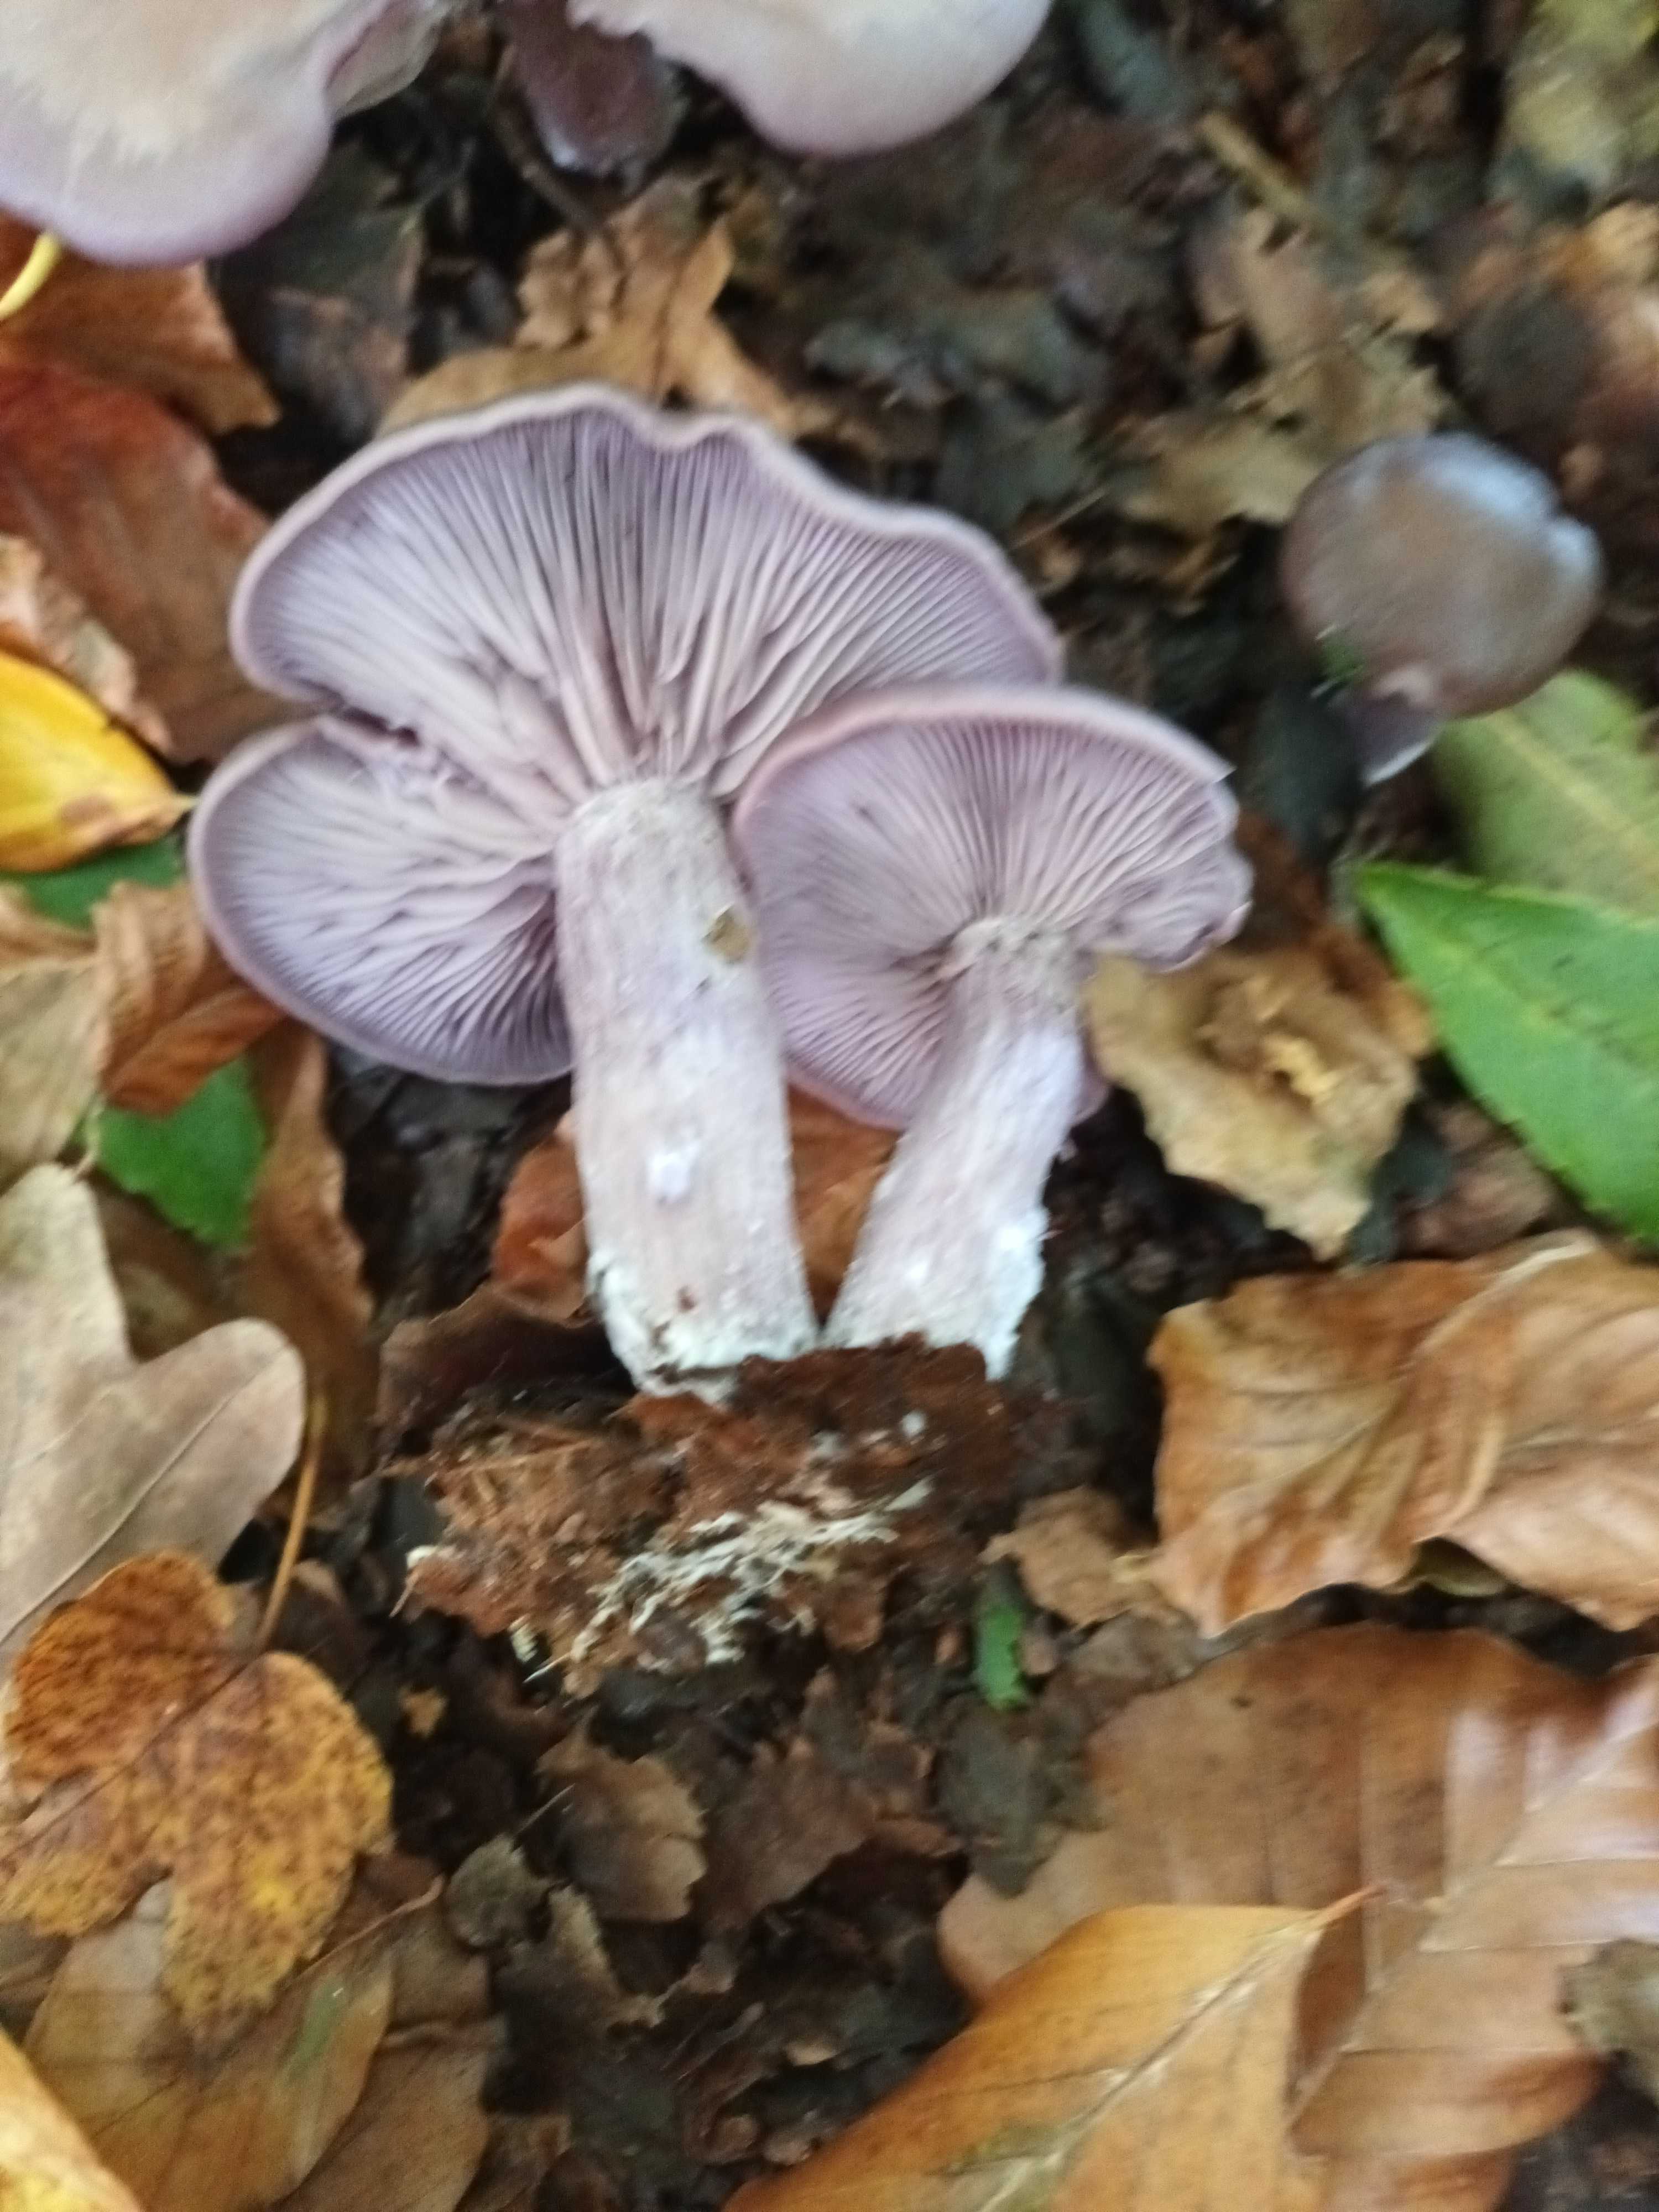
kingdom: Fungi
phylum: Basidiomycota
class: Agaricomycetes
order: Agaricales
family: Tricholomataceae
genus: Lepista
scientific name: Lepista nuda
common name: violet hekseringshat
